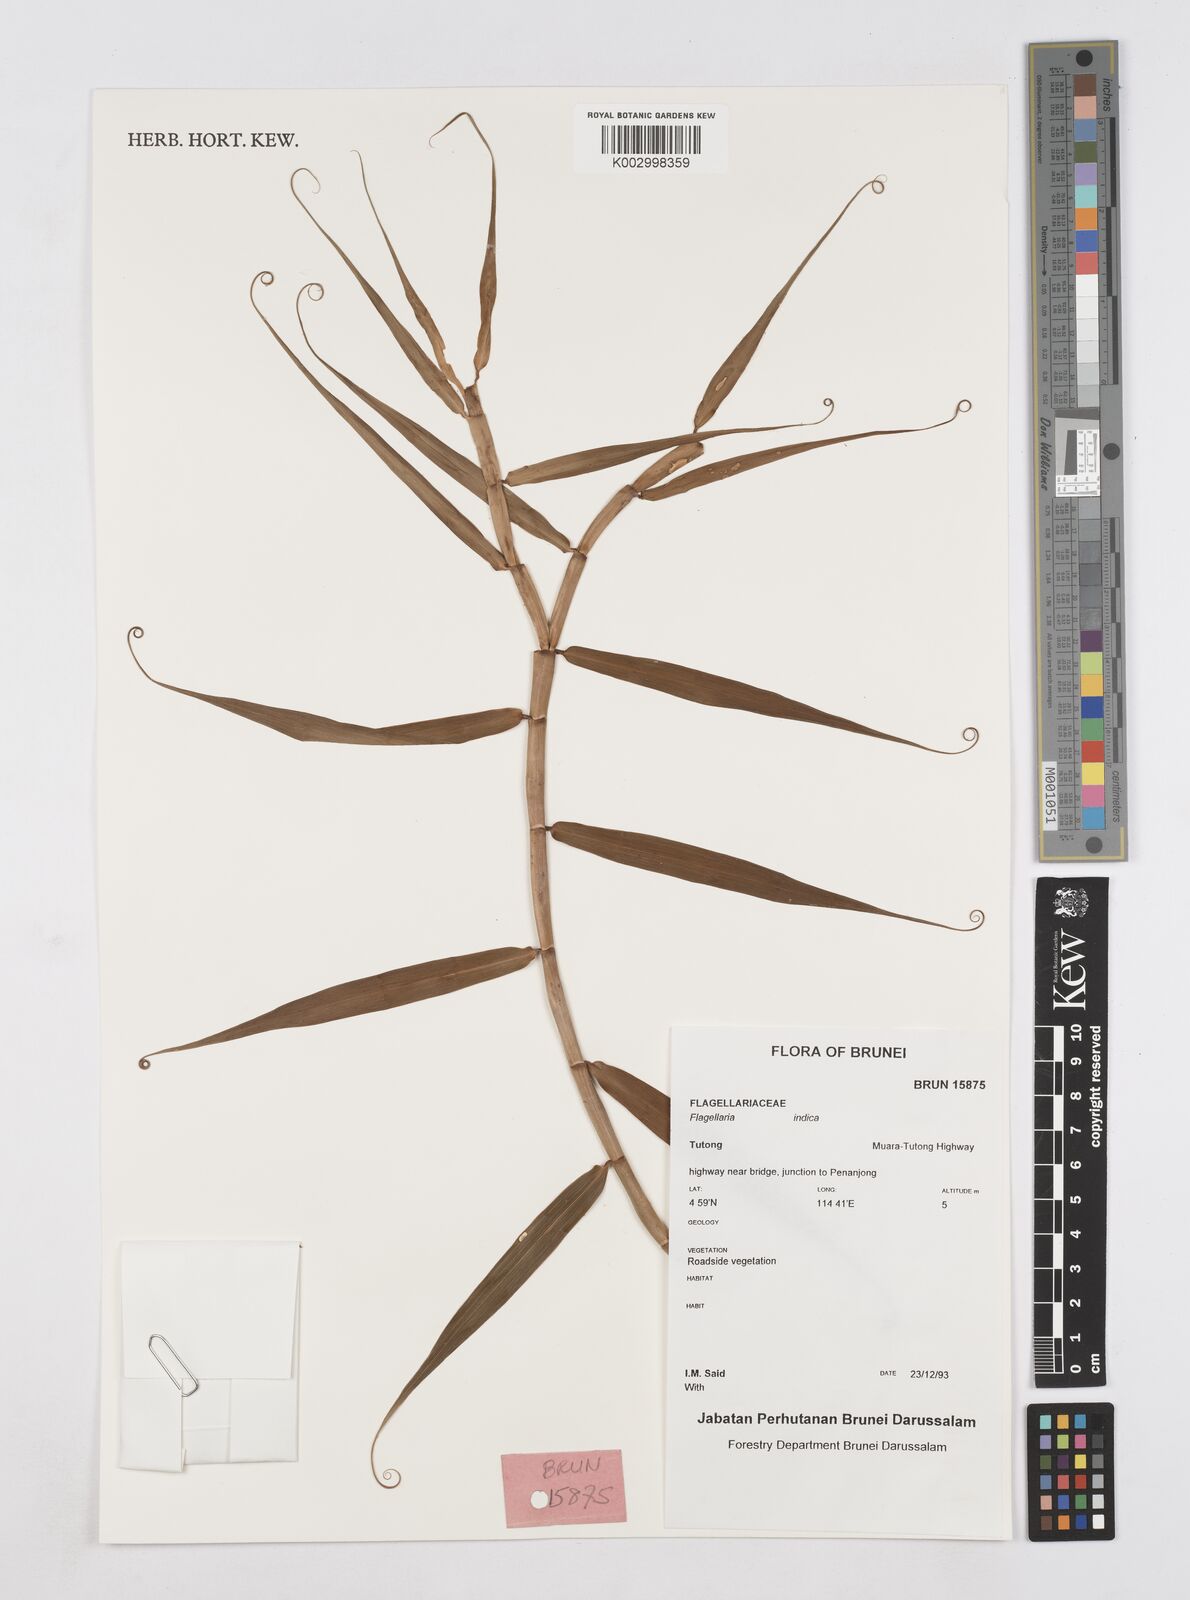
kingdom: Plantae
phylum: Tracheophyta
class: Liliopsida
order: Poales
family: Flagellariaceae
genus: Flagellaria
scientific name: Flagellaria indica
